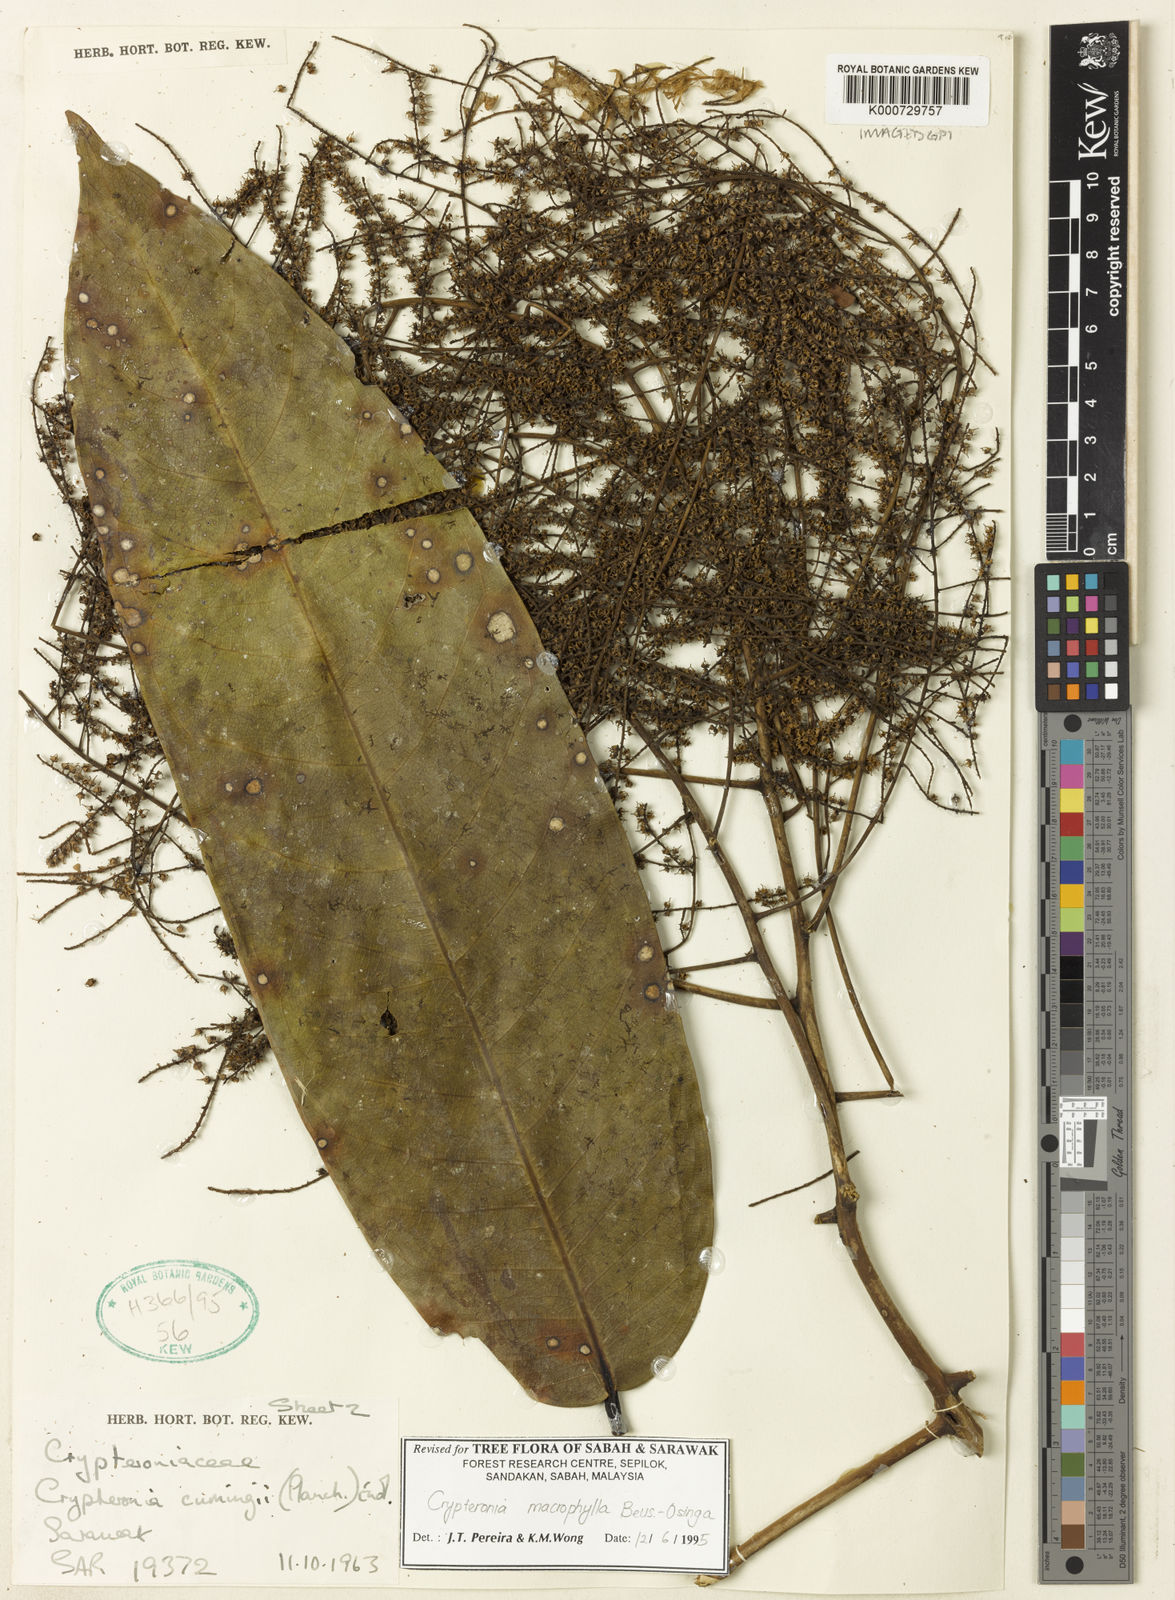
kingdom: Plantae
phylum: Tracheophyta
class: Magnoliopsida
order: Myrtales
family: Crypteroniaceae
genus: Crypteronia
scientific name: Crypteronia macrophylla
